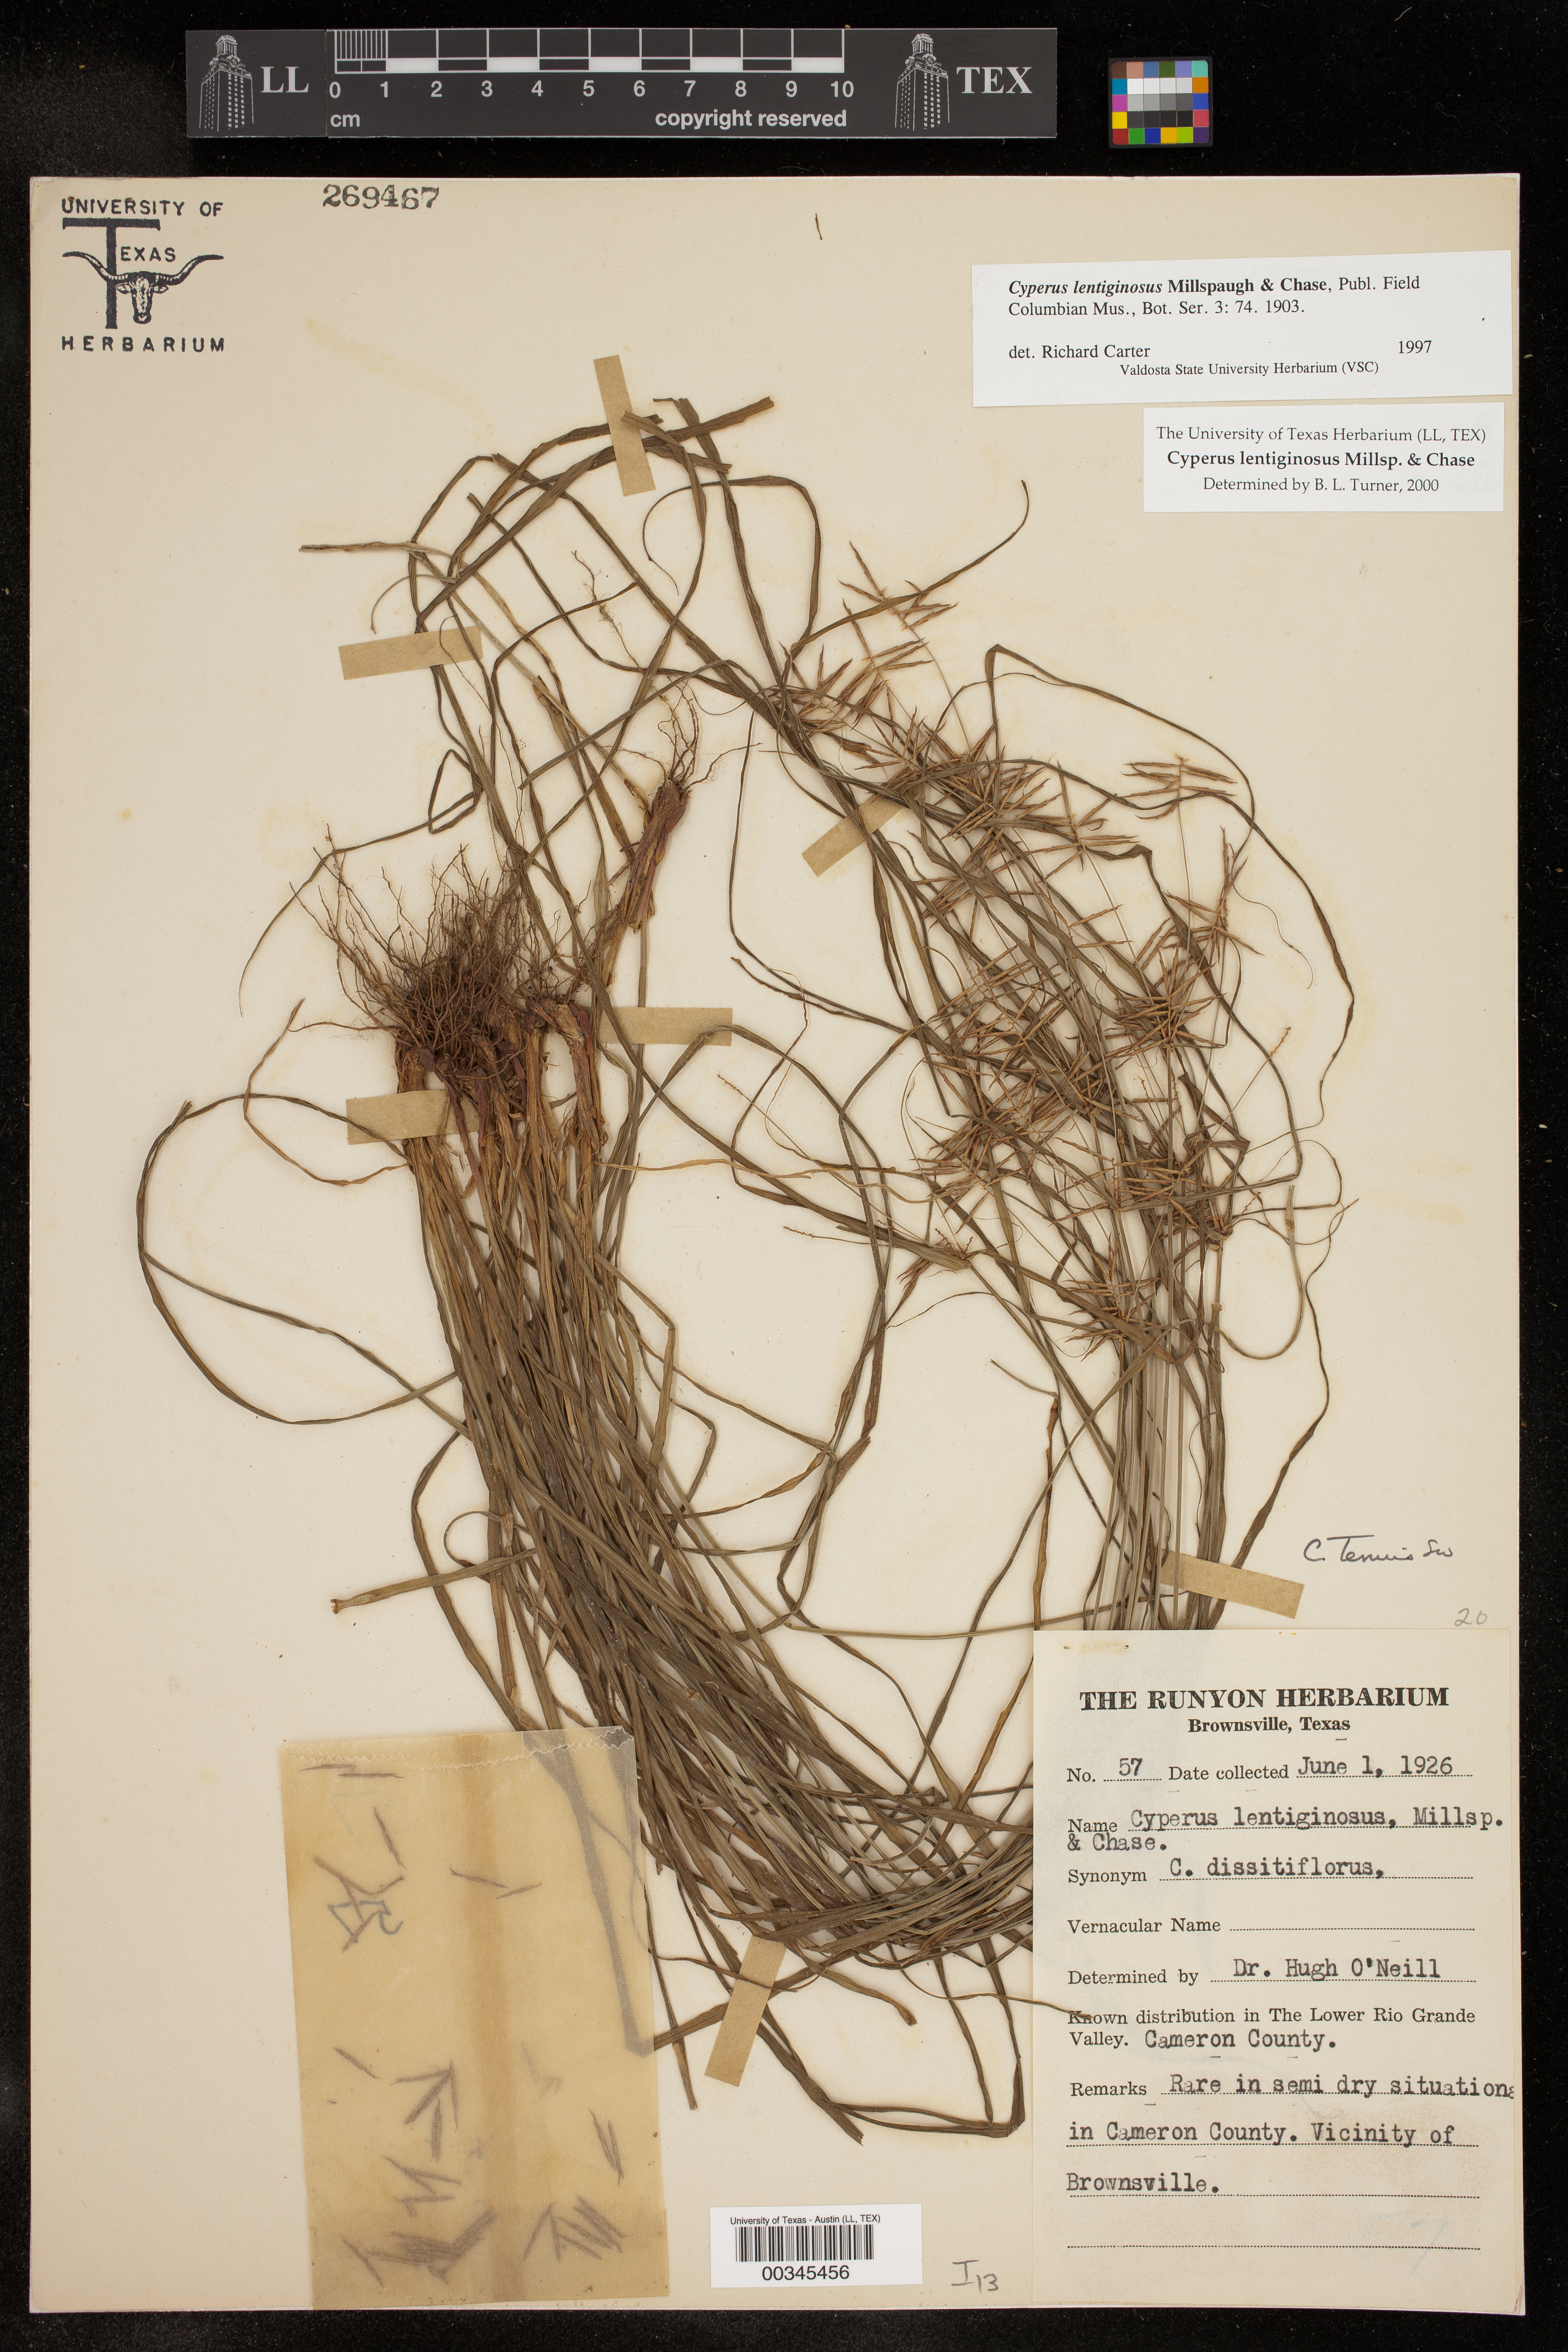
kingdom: Plantae
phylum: Tracheophyta
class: Liliopsida
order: Poales
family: Cyperaceae
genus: Cyperus
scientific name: Cyperus lentiginosus
